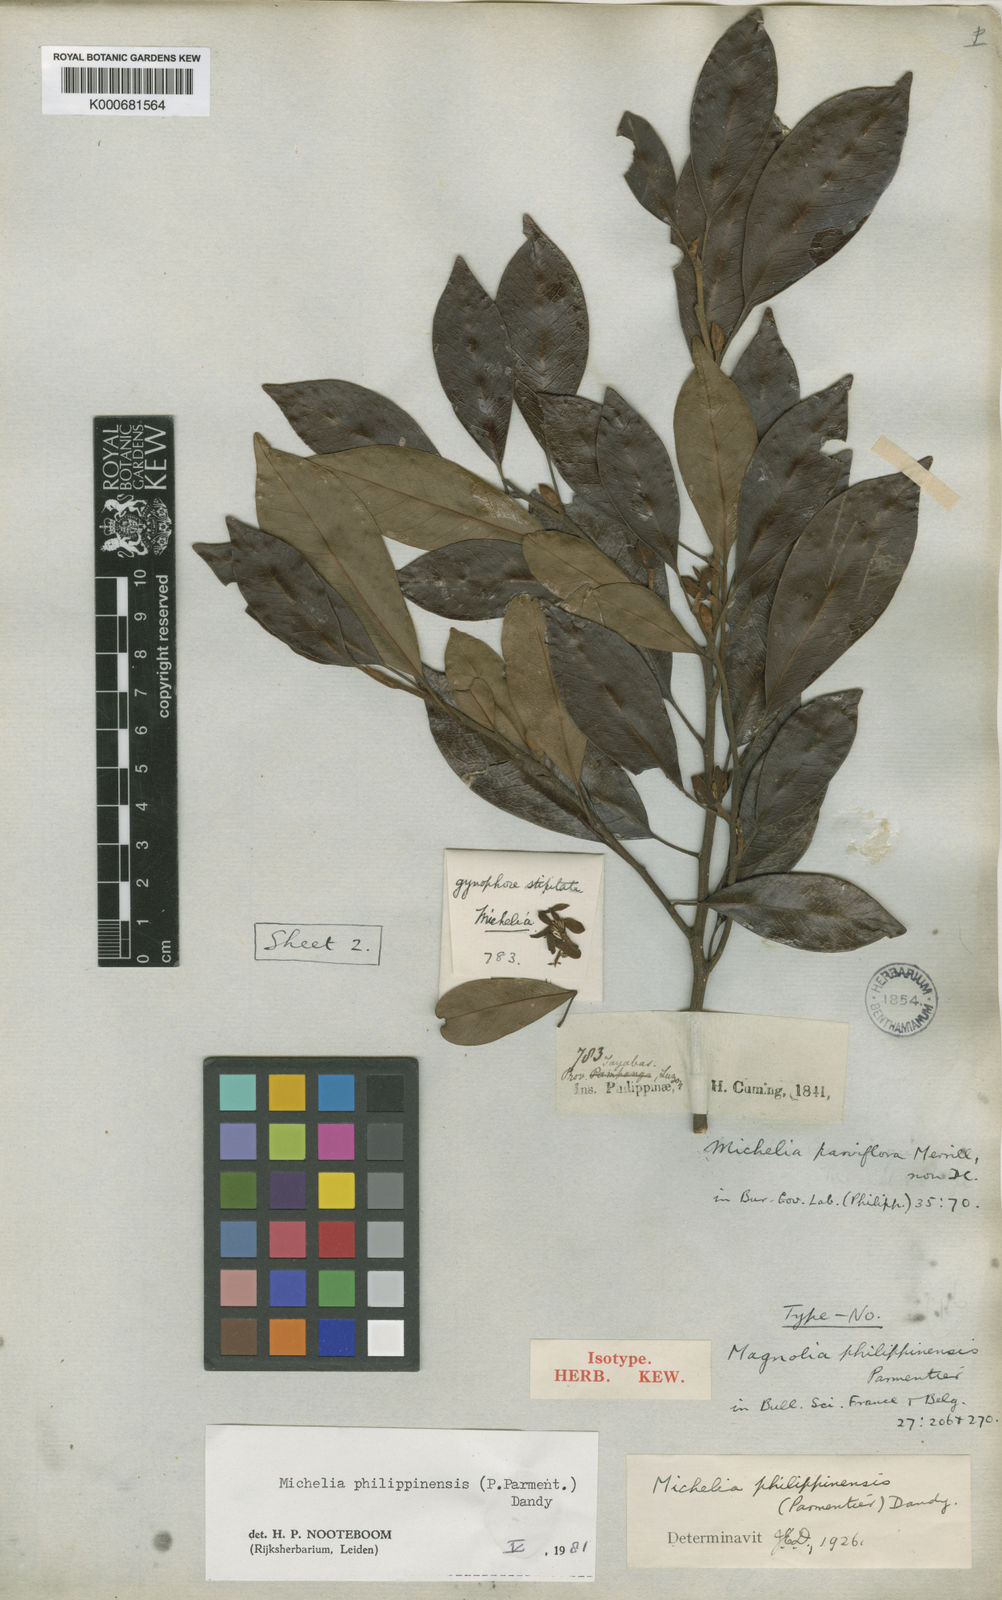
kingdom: Plantae
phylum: Tracheophyta
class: Magnoliopsida
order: Magnoliales
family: Magnoliaceae
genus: Magnolia
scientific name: Magnolia philippinensis
